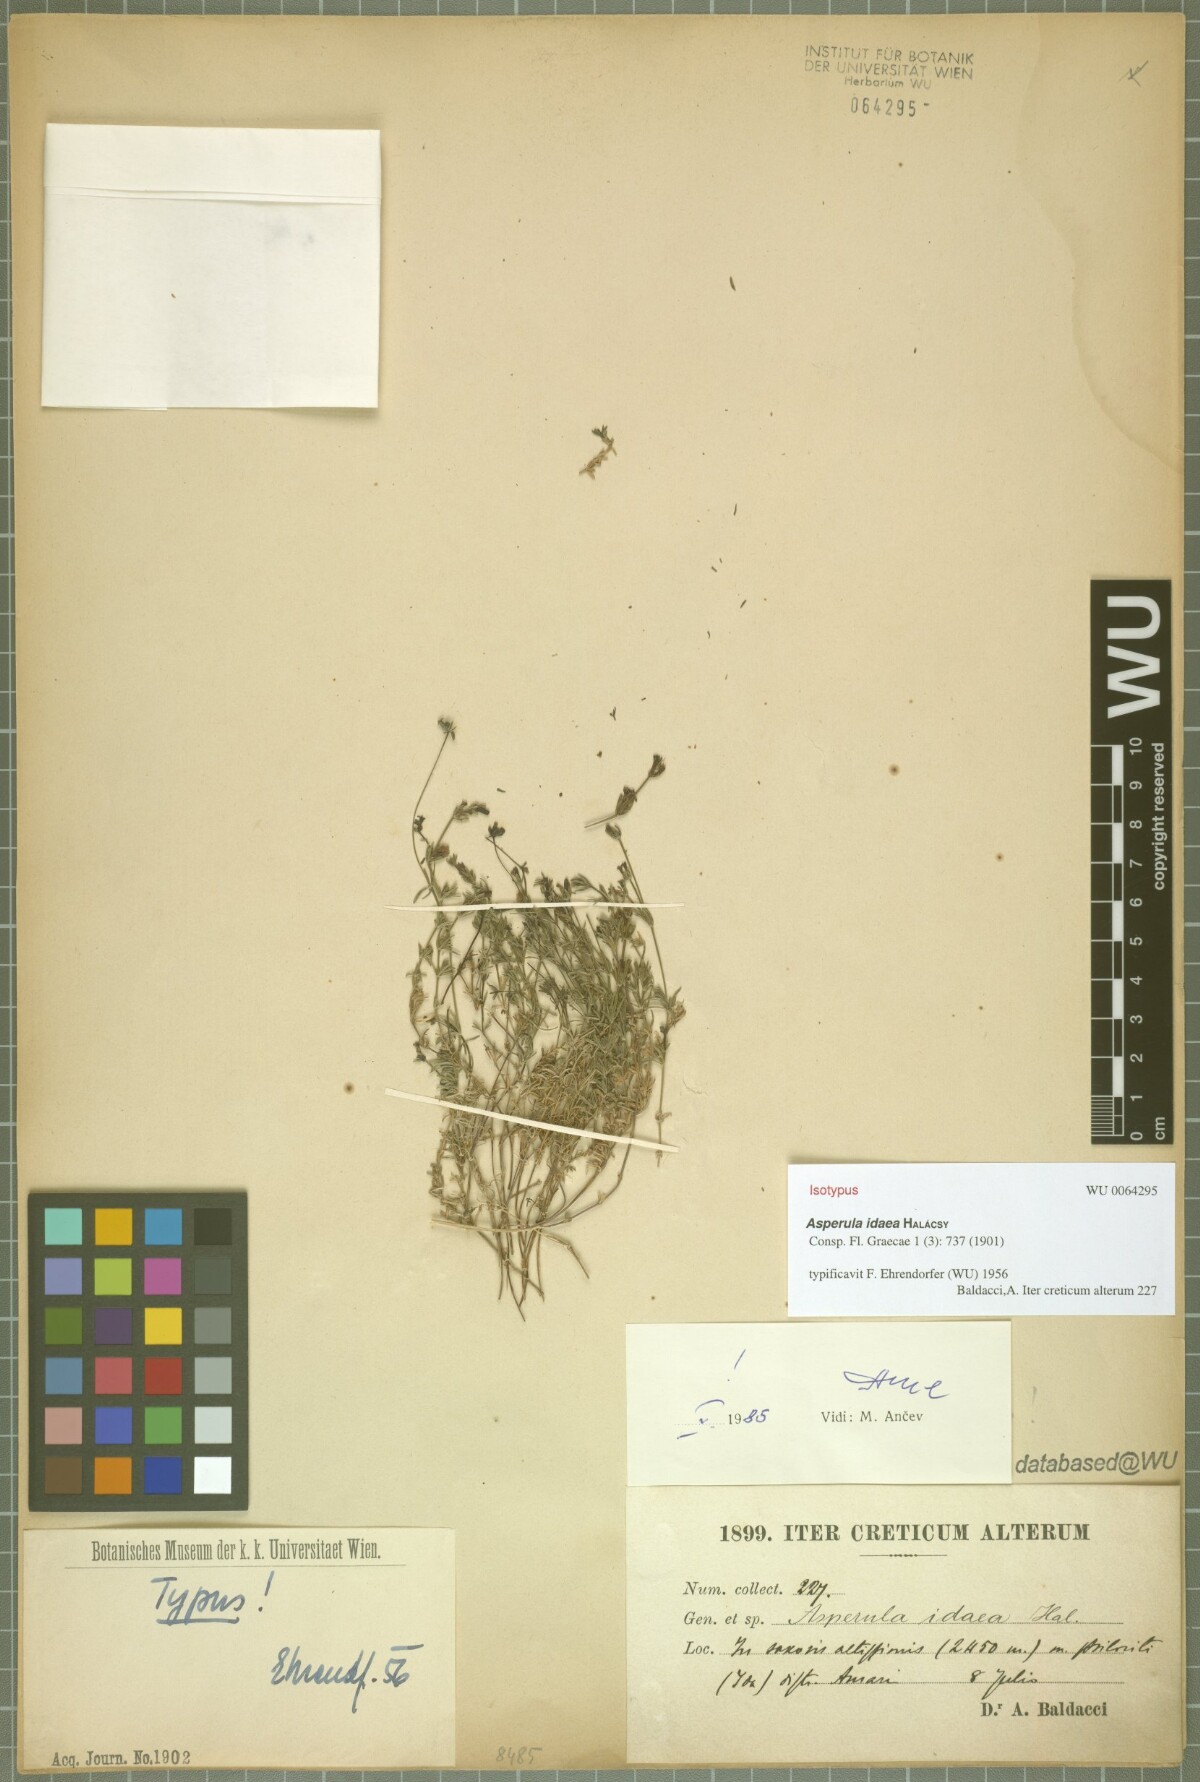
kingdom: Plantae
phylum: Tracheophyta
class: Magnoliopsida
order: Gentianales
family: Rubiaceae
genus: Cynanchica
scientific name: Cynanchica idaea
